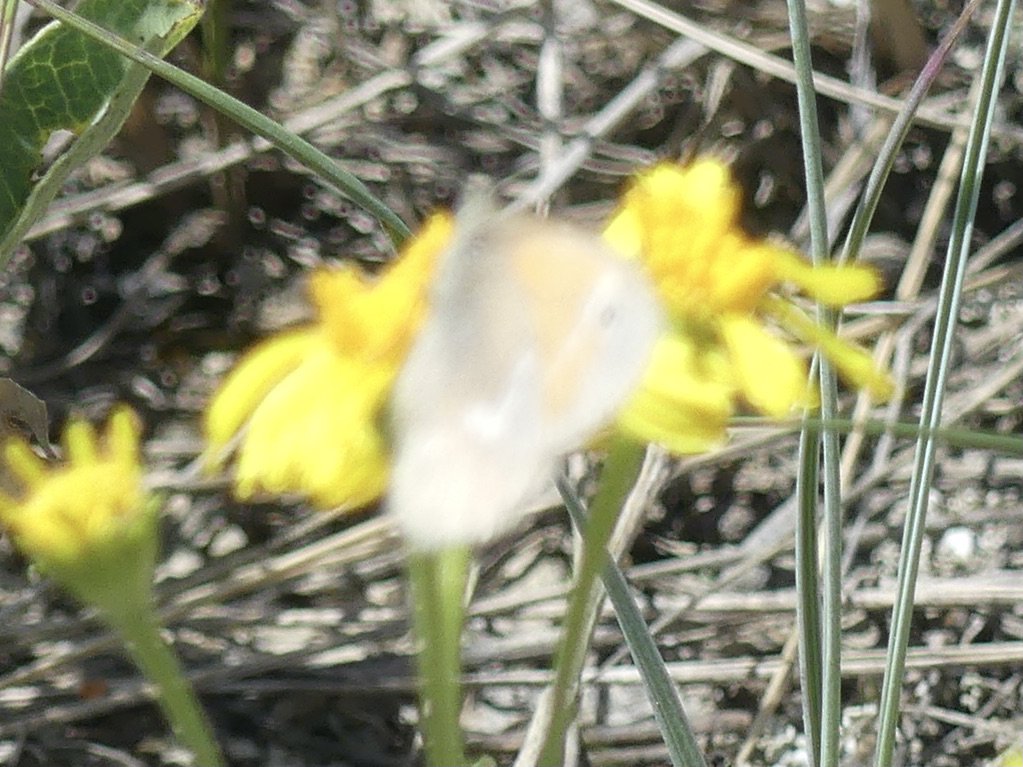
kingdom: Animalia
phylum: Arthropoda
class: Insecta
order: Lepidoptera
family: Nymphalidae
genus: Coenonympha
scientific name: Coenonympha tullia
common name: Large Heath
